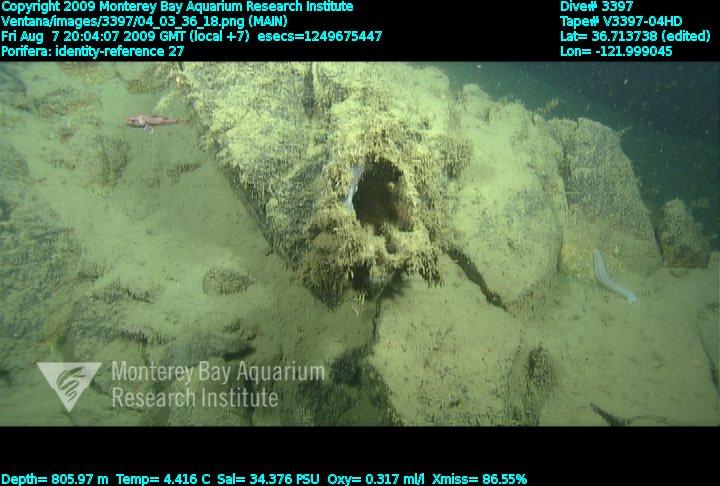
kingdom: Animalia
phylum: Porifera
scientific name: Porifera
